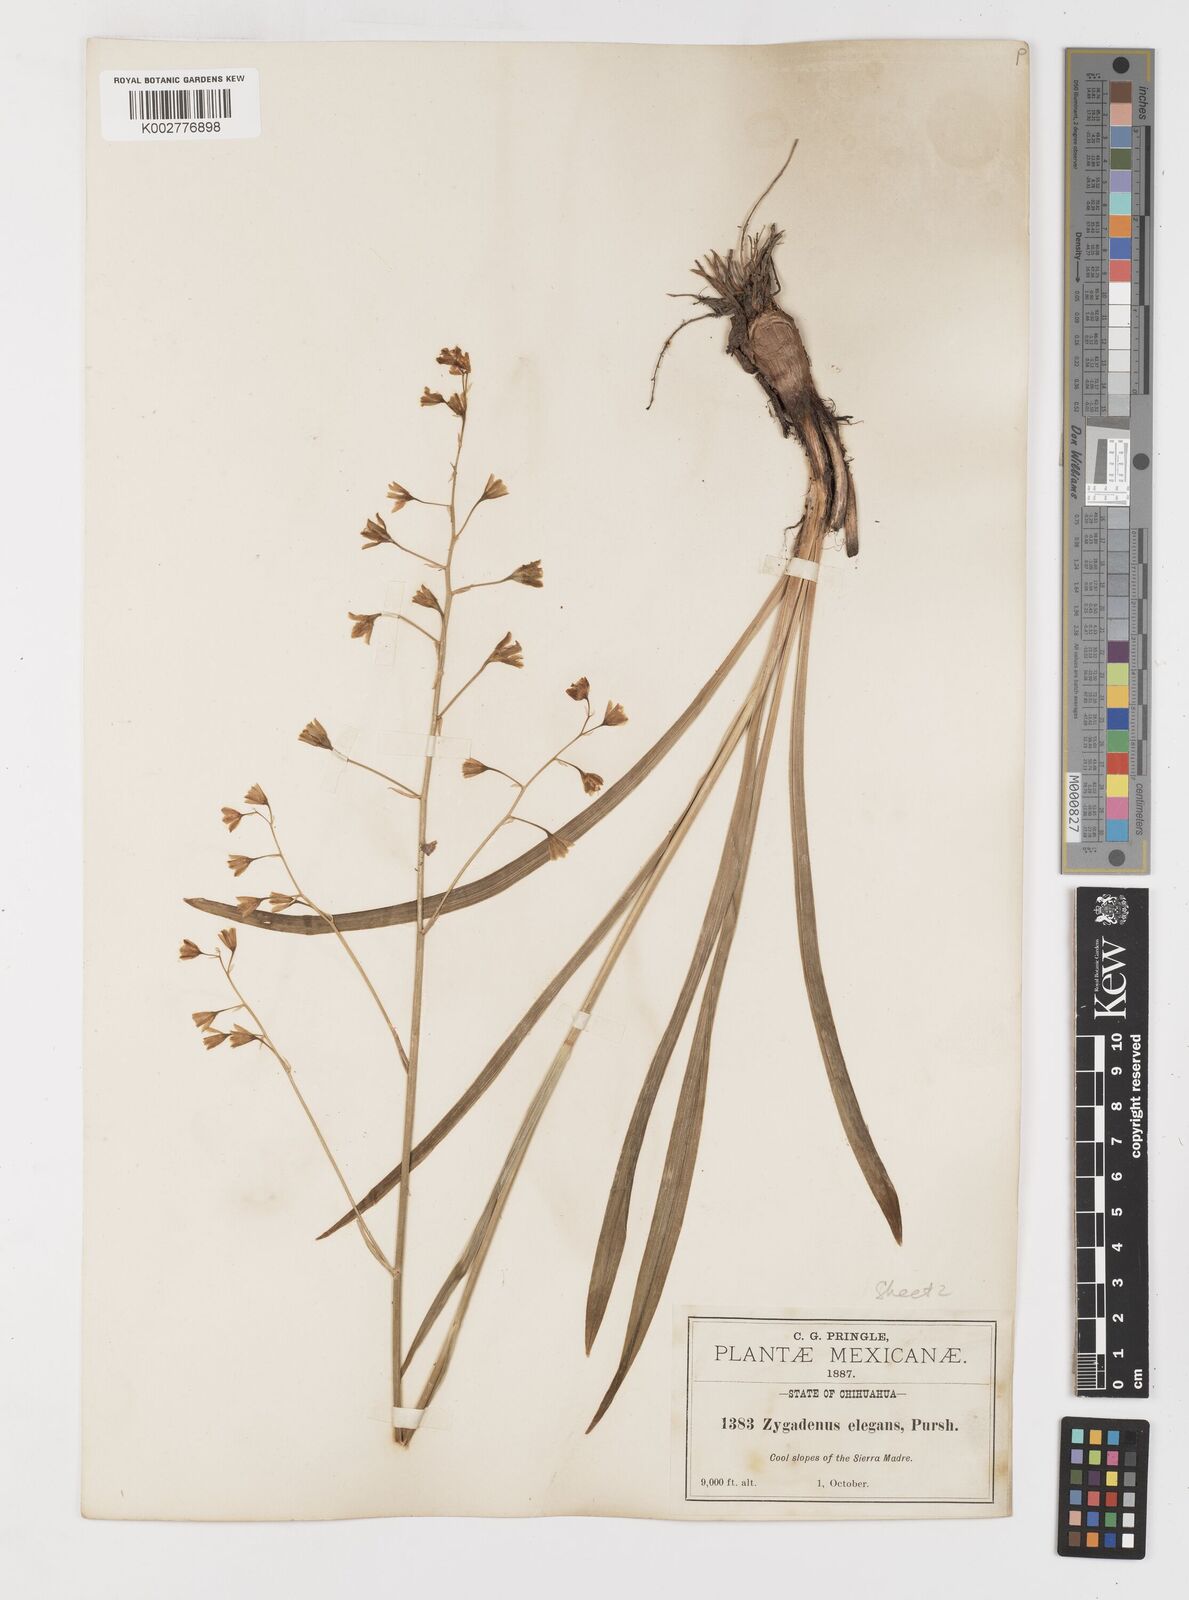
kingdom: Plantae
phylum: Tracheophyta
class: Liliopsida
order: Liliales
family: Melanthiaceae
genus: Anticlea
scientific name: Anticlea virescens
